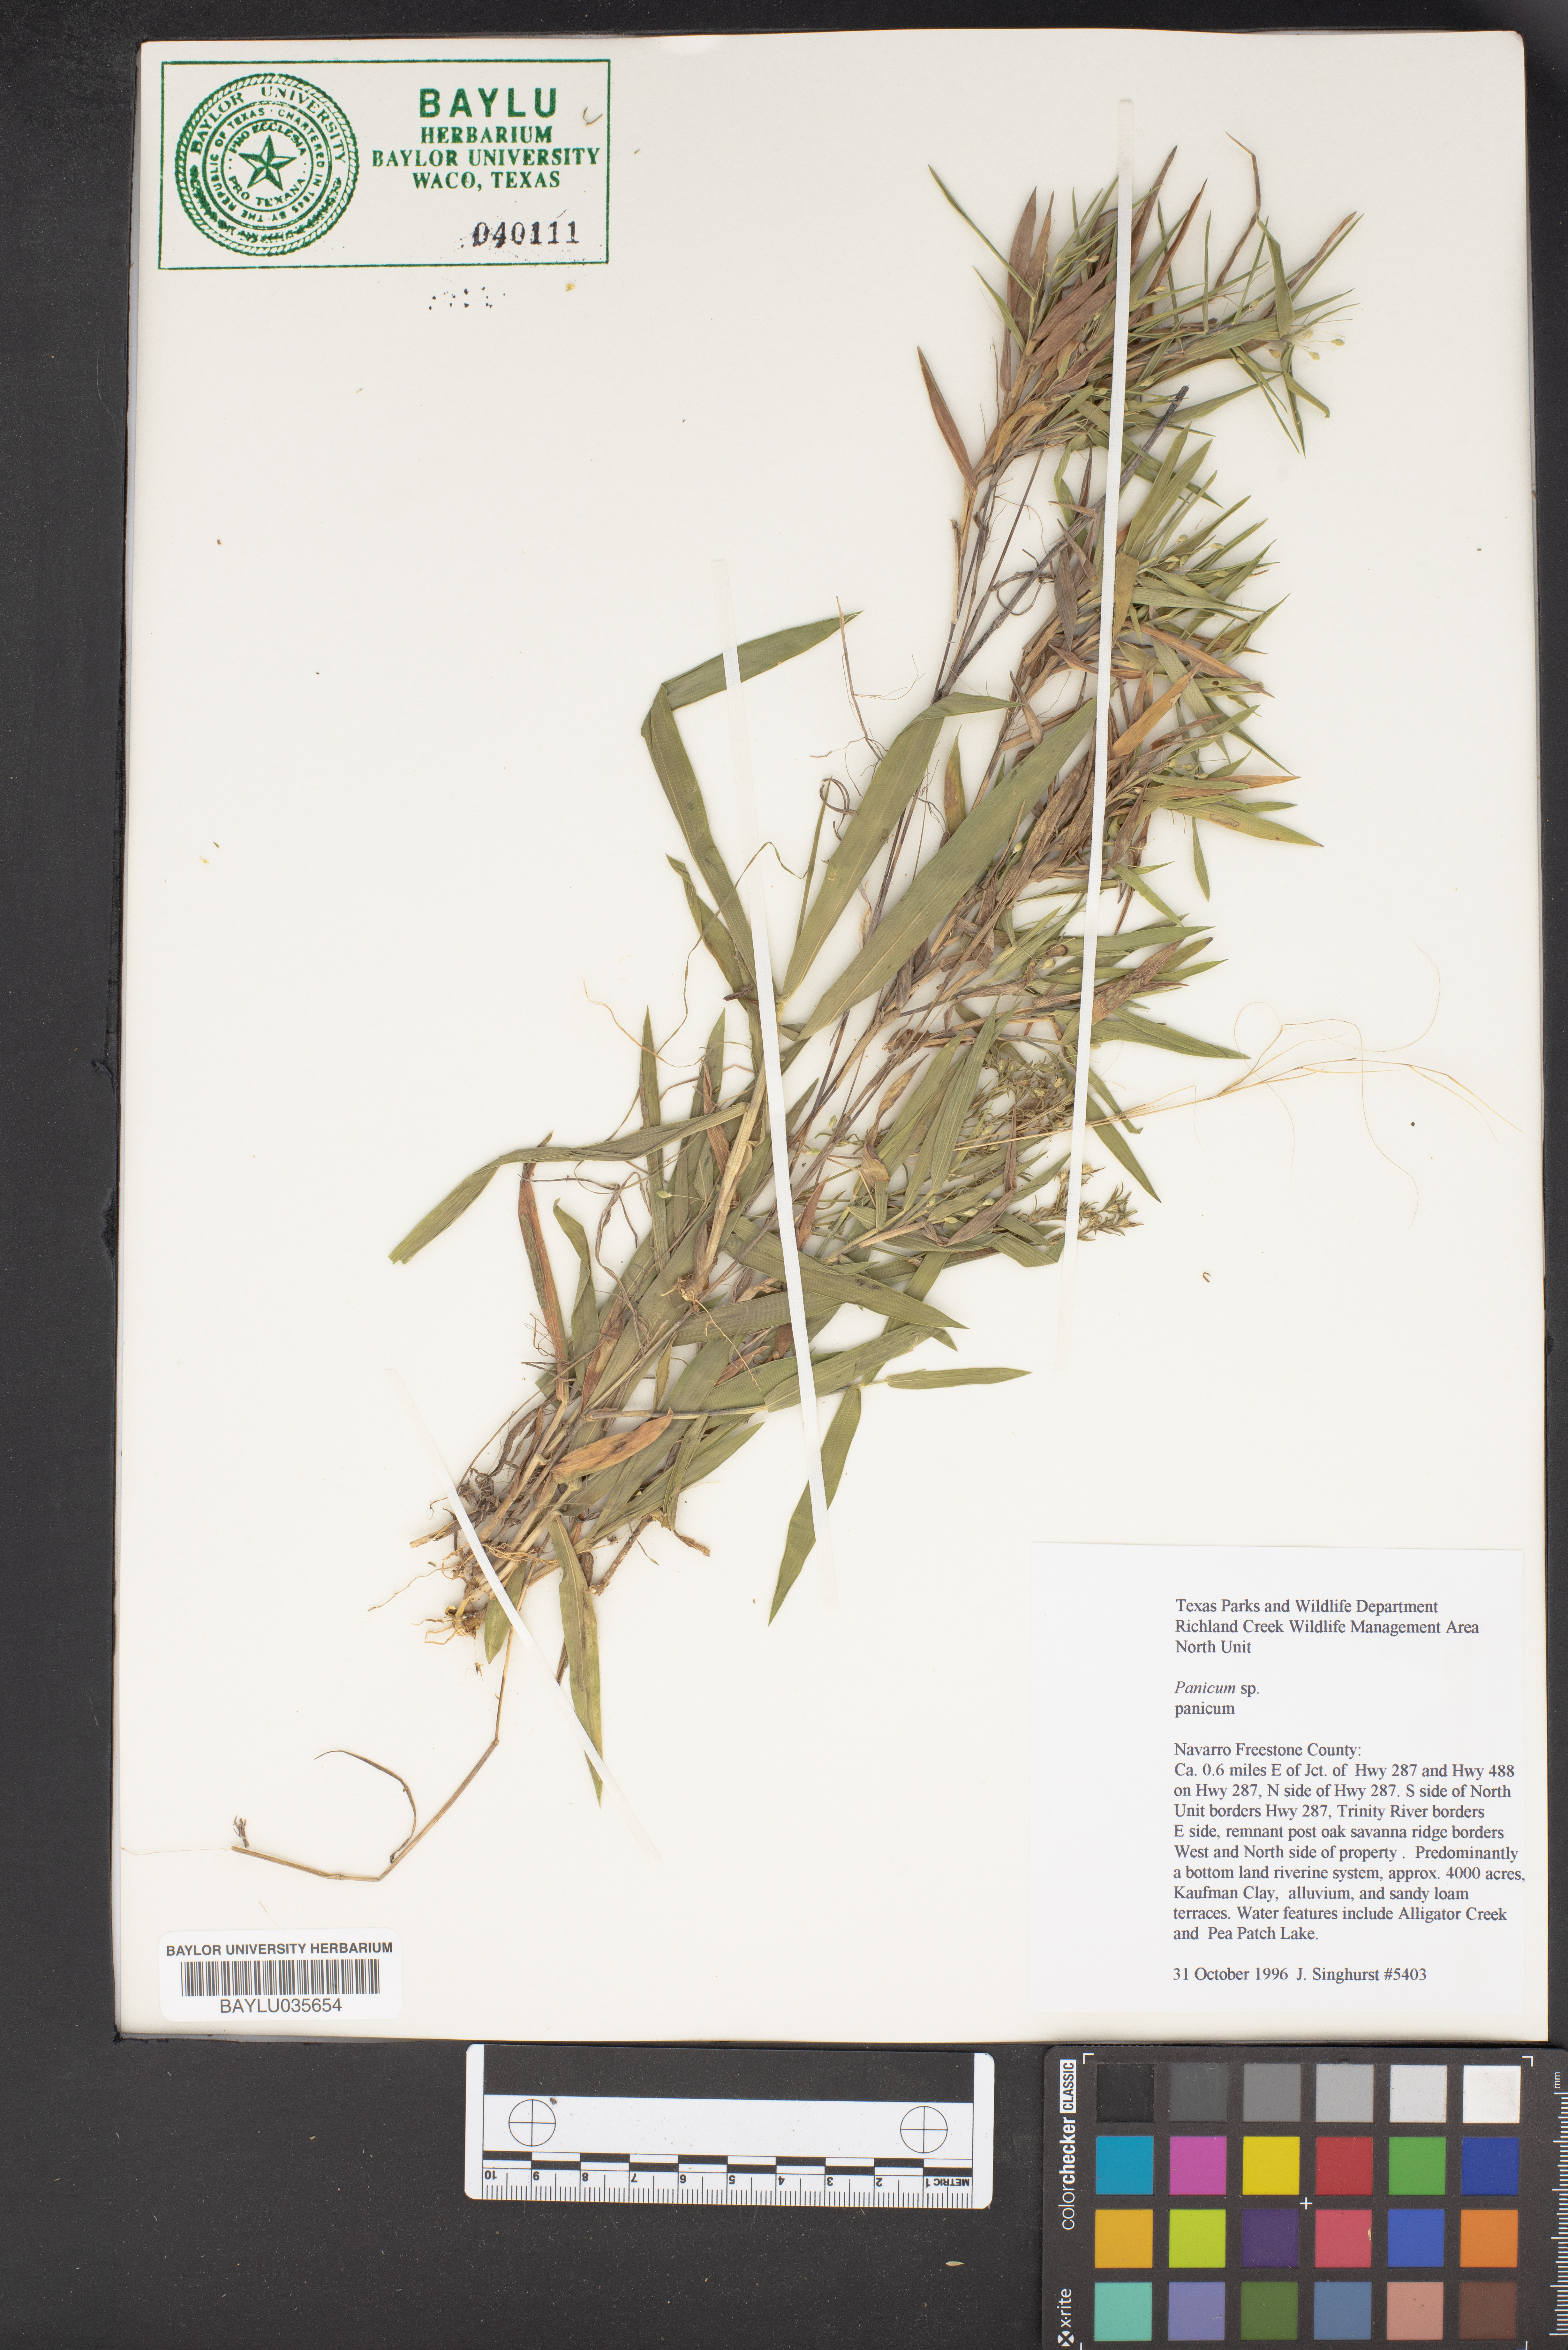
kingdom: Plantae
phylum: Tracheophyta
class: Liliopsida
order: Poales
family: Poaceae
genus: Panicum
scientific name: Panicum
